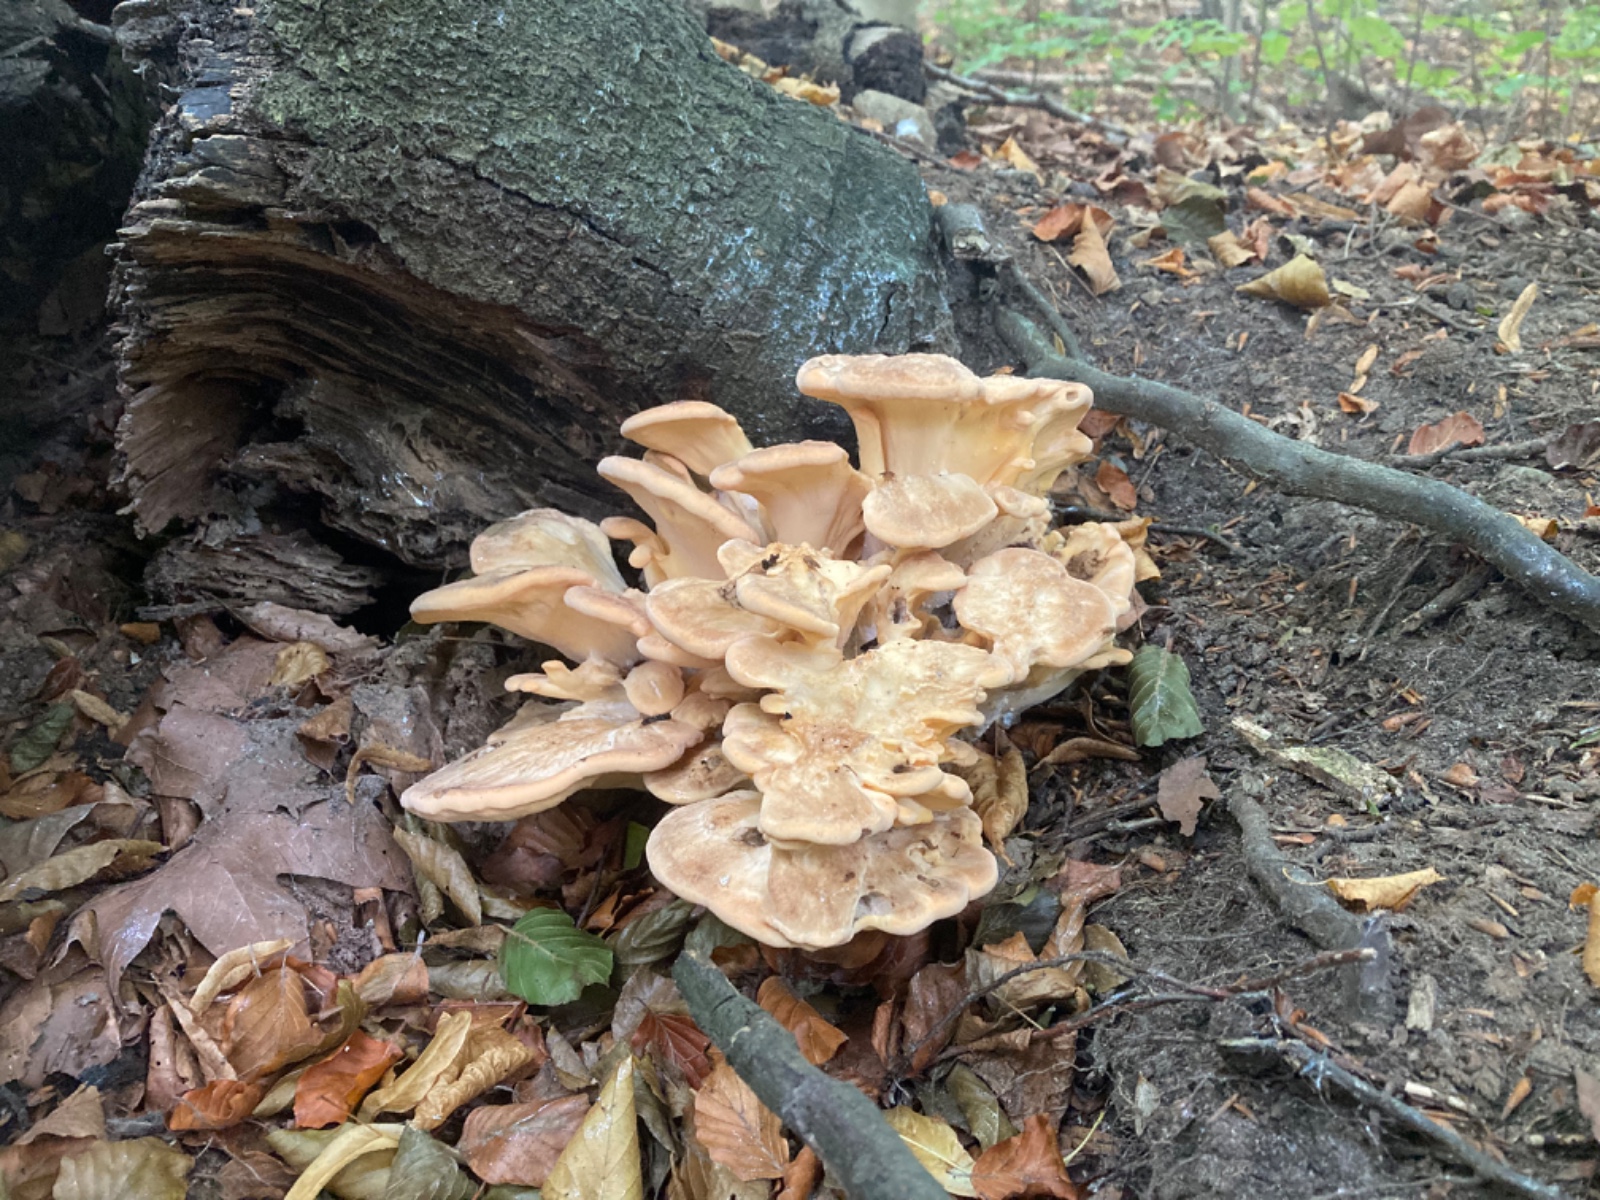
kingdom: Fungi
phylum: Basidiomycota
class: Agaricomycetes
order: Polyporales
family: Meripilaceae
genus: Meripilus
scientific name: Meripilus giganteus
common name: kæmpeporesvamp
